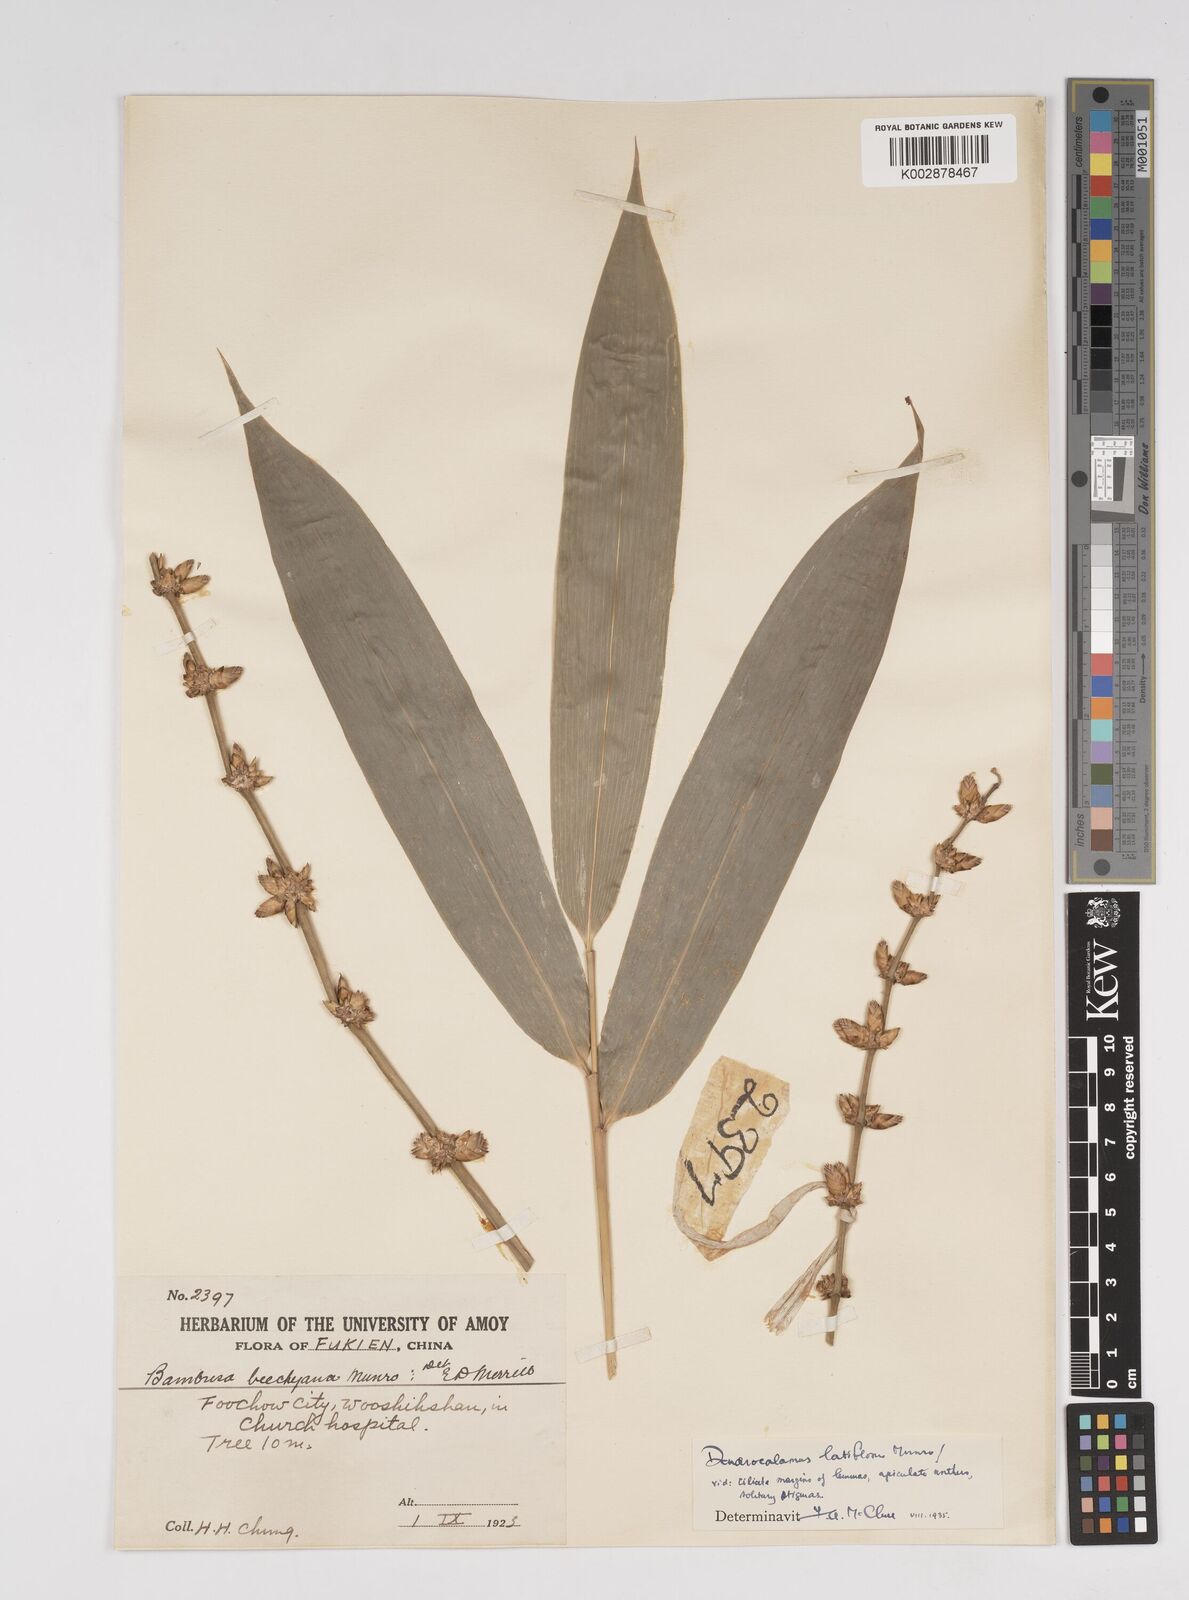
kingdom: Plantae
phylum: Tracheophyta
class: Liliopsida
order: Poales
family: Poaceae
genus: Dendrocalamus
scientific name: Dendrocalamus latiflorus
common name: Giant bamboo
